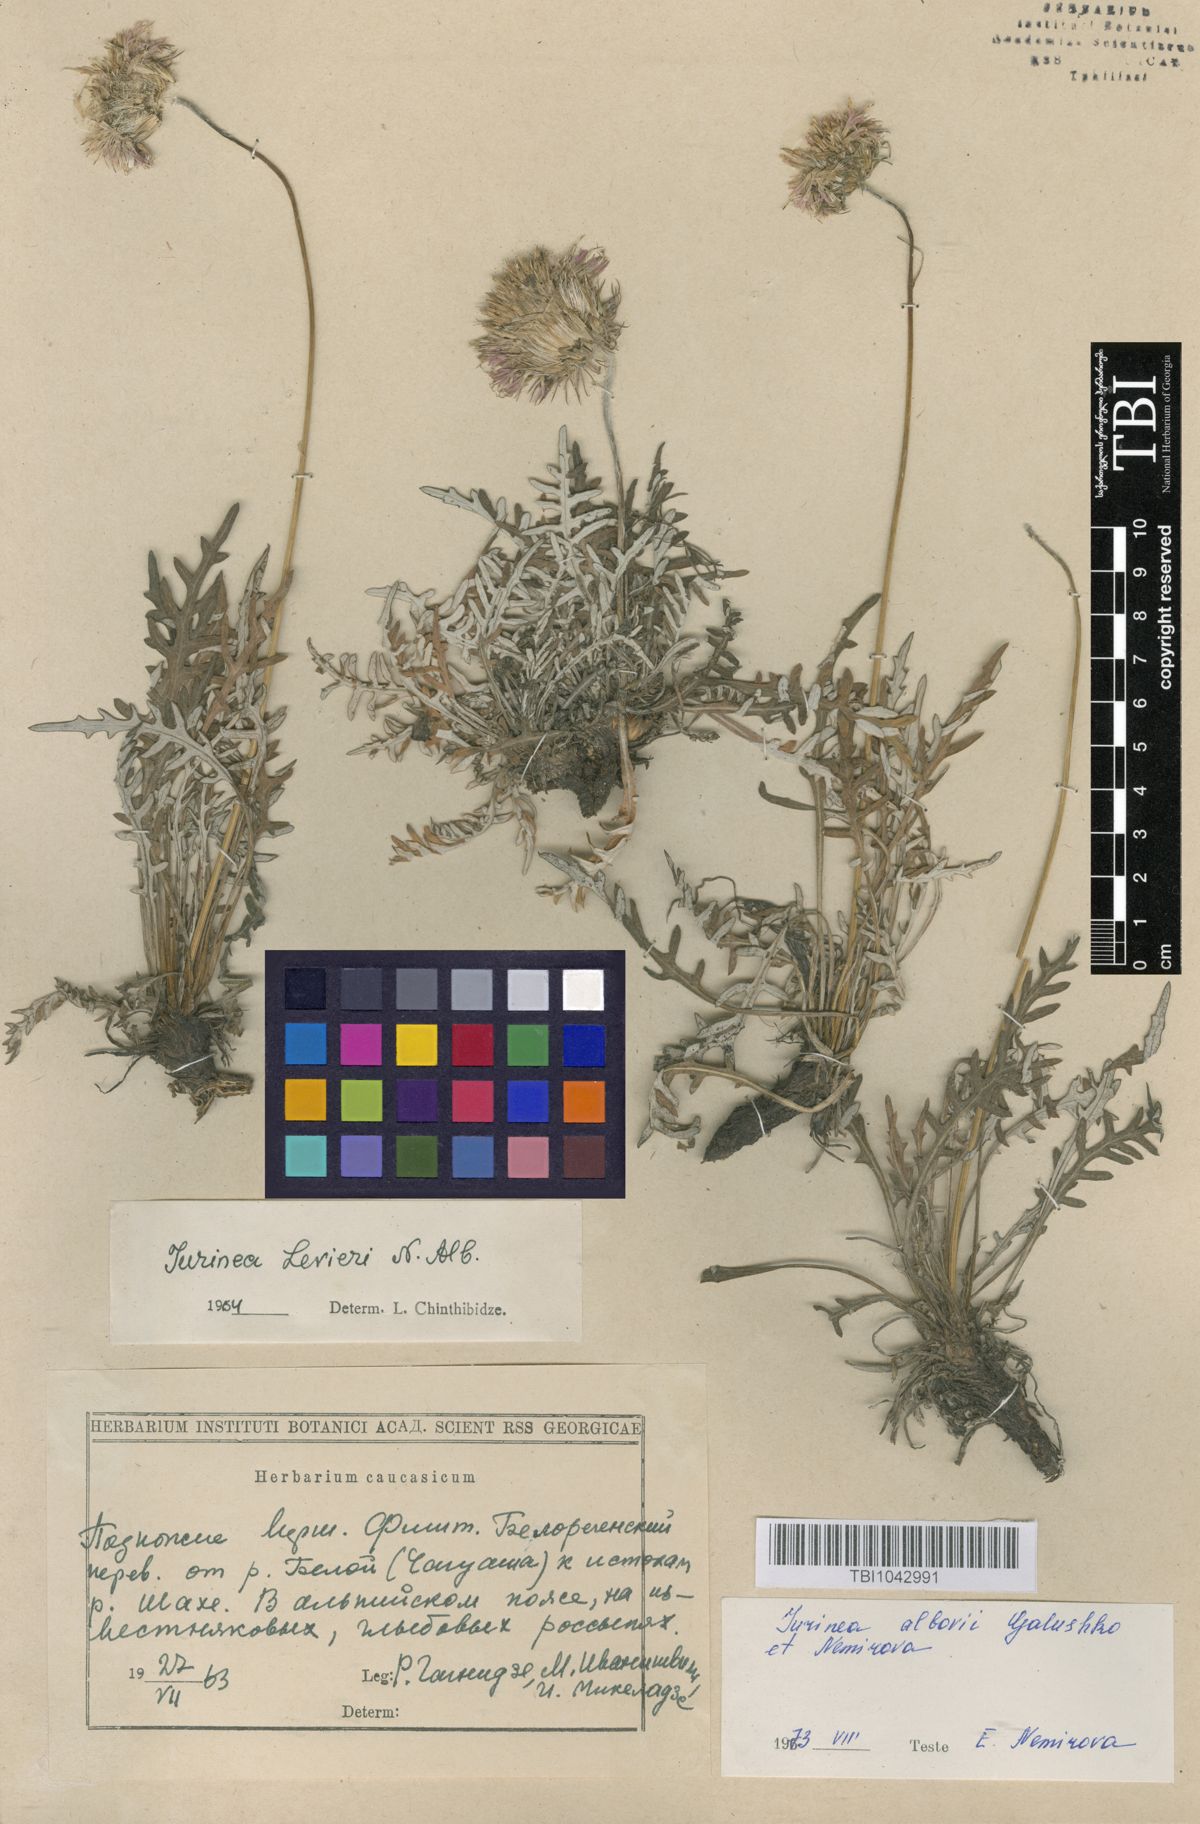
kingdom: Plantae
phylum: Tracheophyta
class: Magnoliopsida
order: Asterales
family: Asteraceae
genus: Jurinea
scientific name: Jurinea
